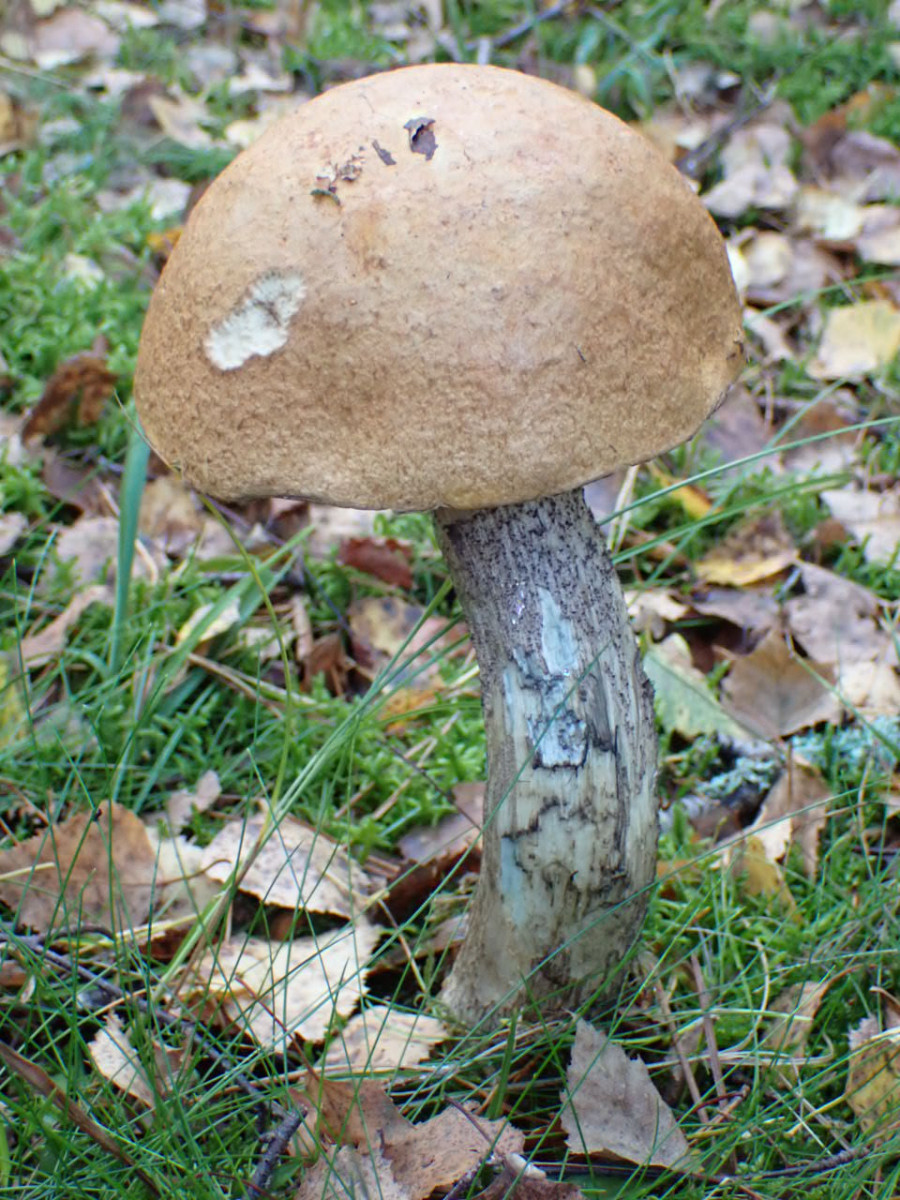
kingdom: Fungi
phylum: Basidiomycota
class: Agaricomycetes
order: Boletales
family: Boletaceae
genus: Leccinum
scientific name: Leccinum
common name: skælrørhat
